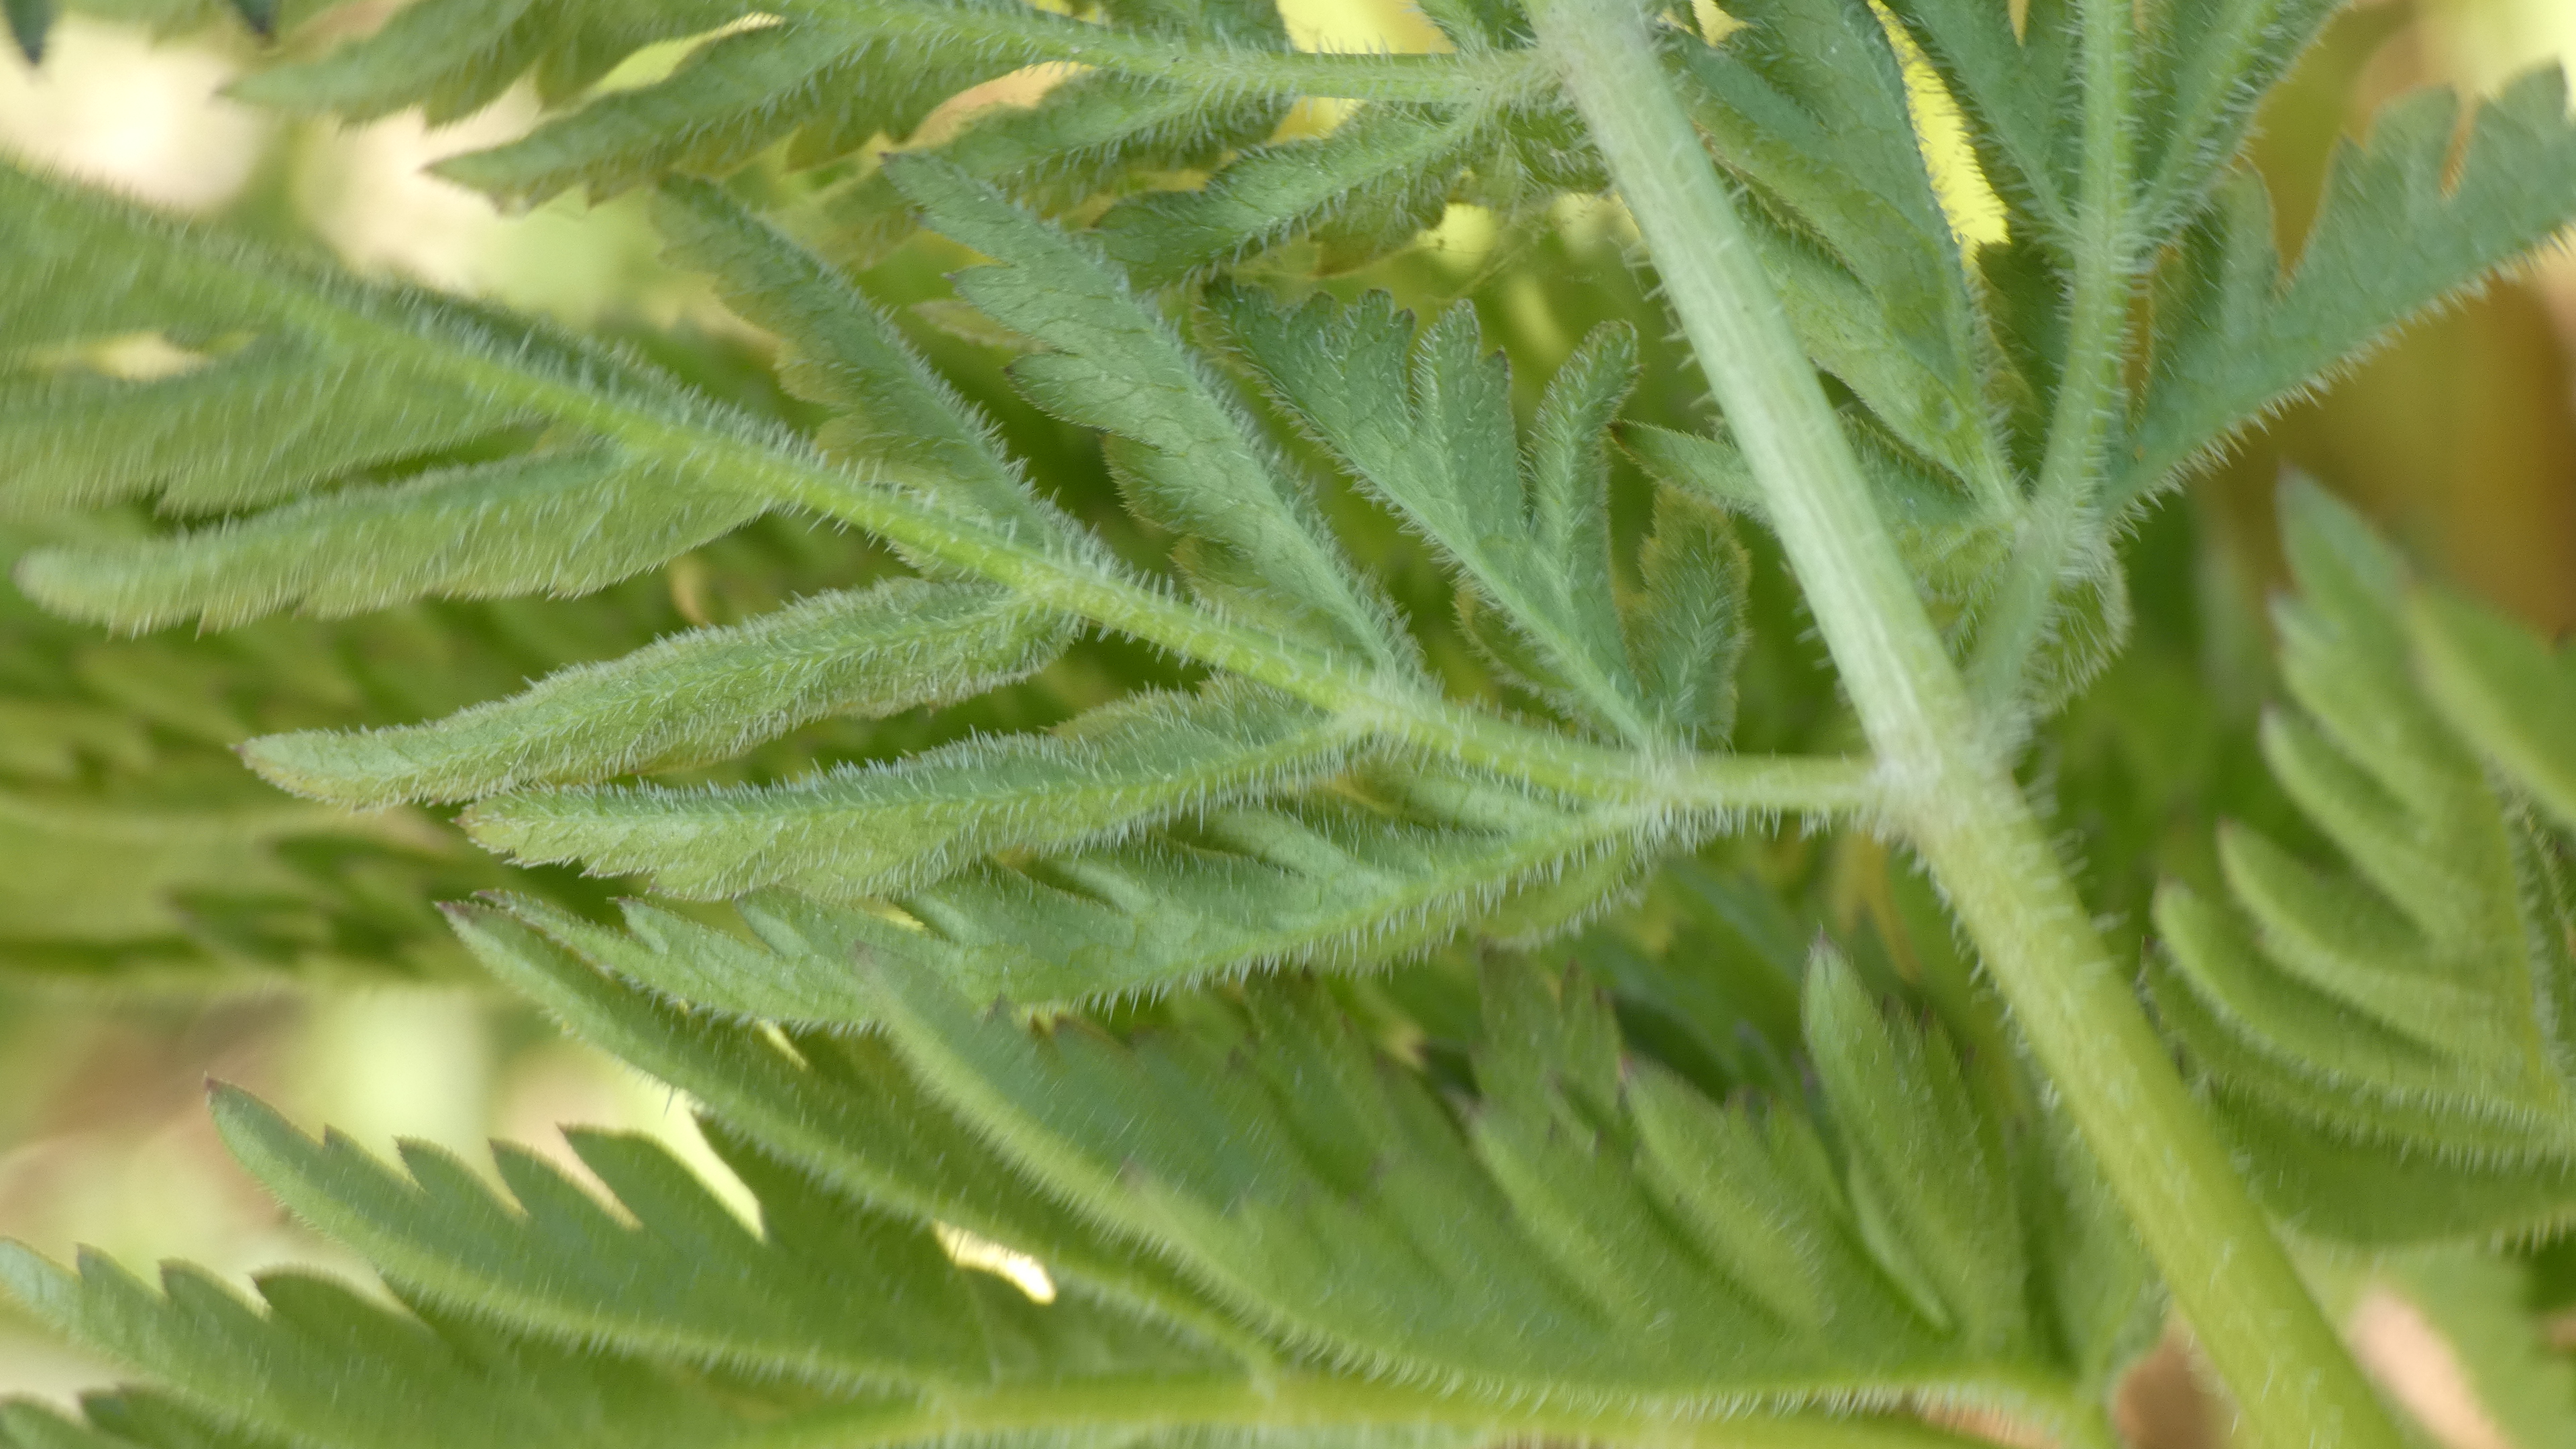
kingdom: Plantae
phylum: Tracheophyta
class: Magnoliopsida
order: Apiales
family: Apiaceae
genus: Anthriscus
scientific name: Anthriscus sylvestris
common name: Vild kørvel
